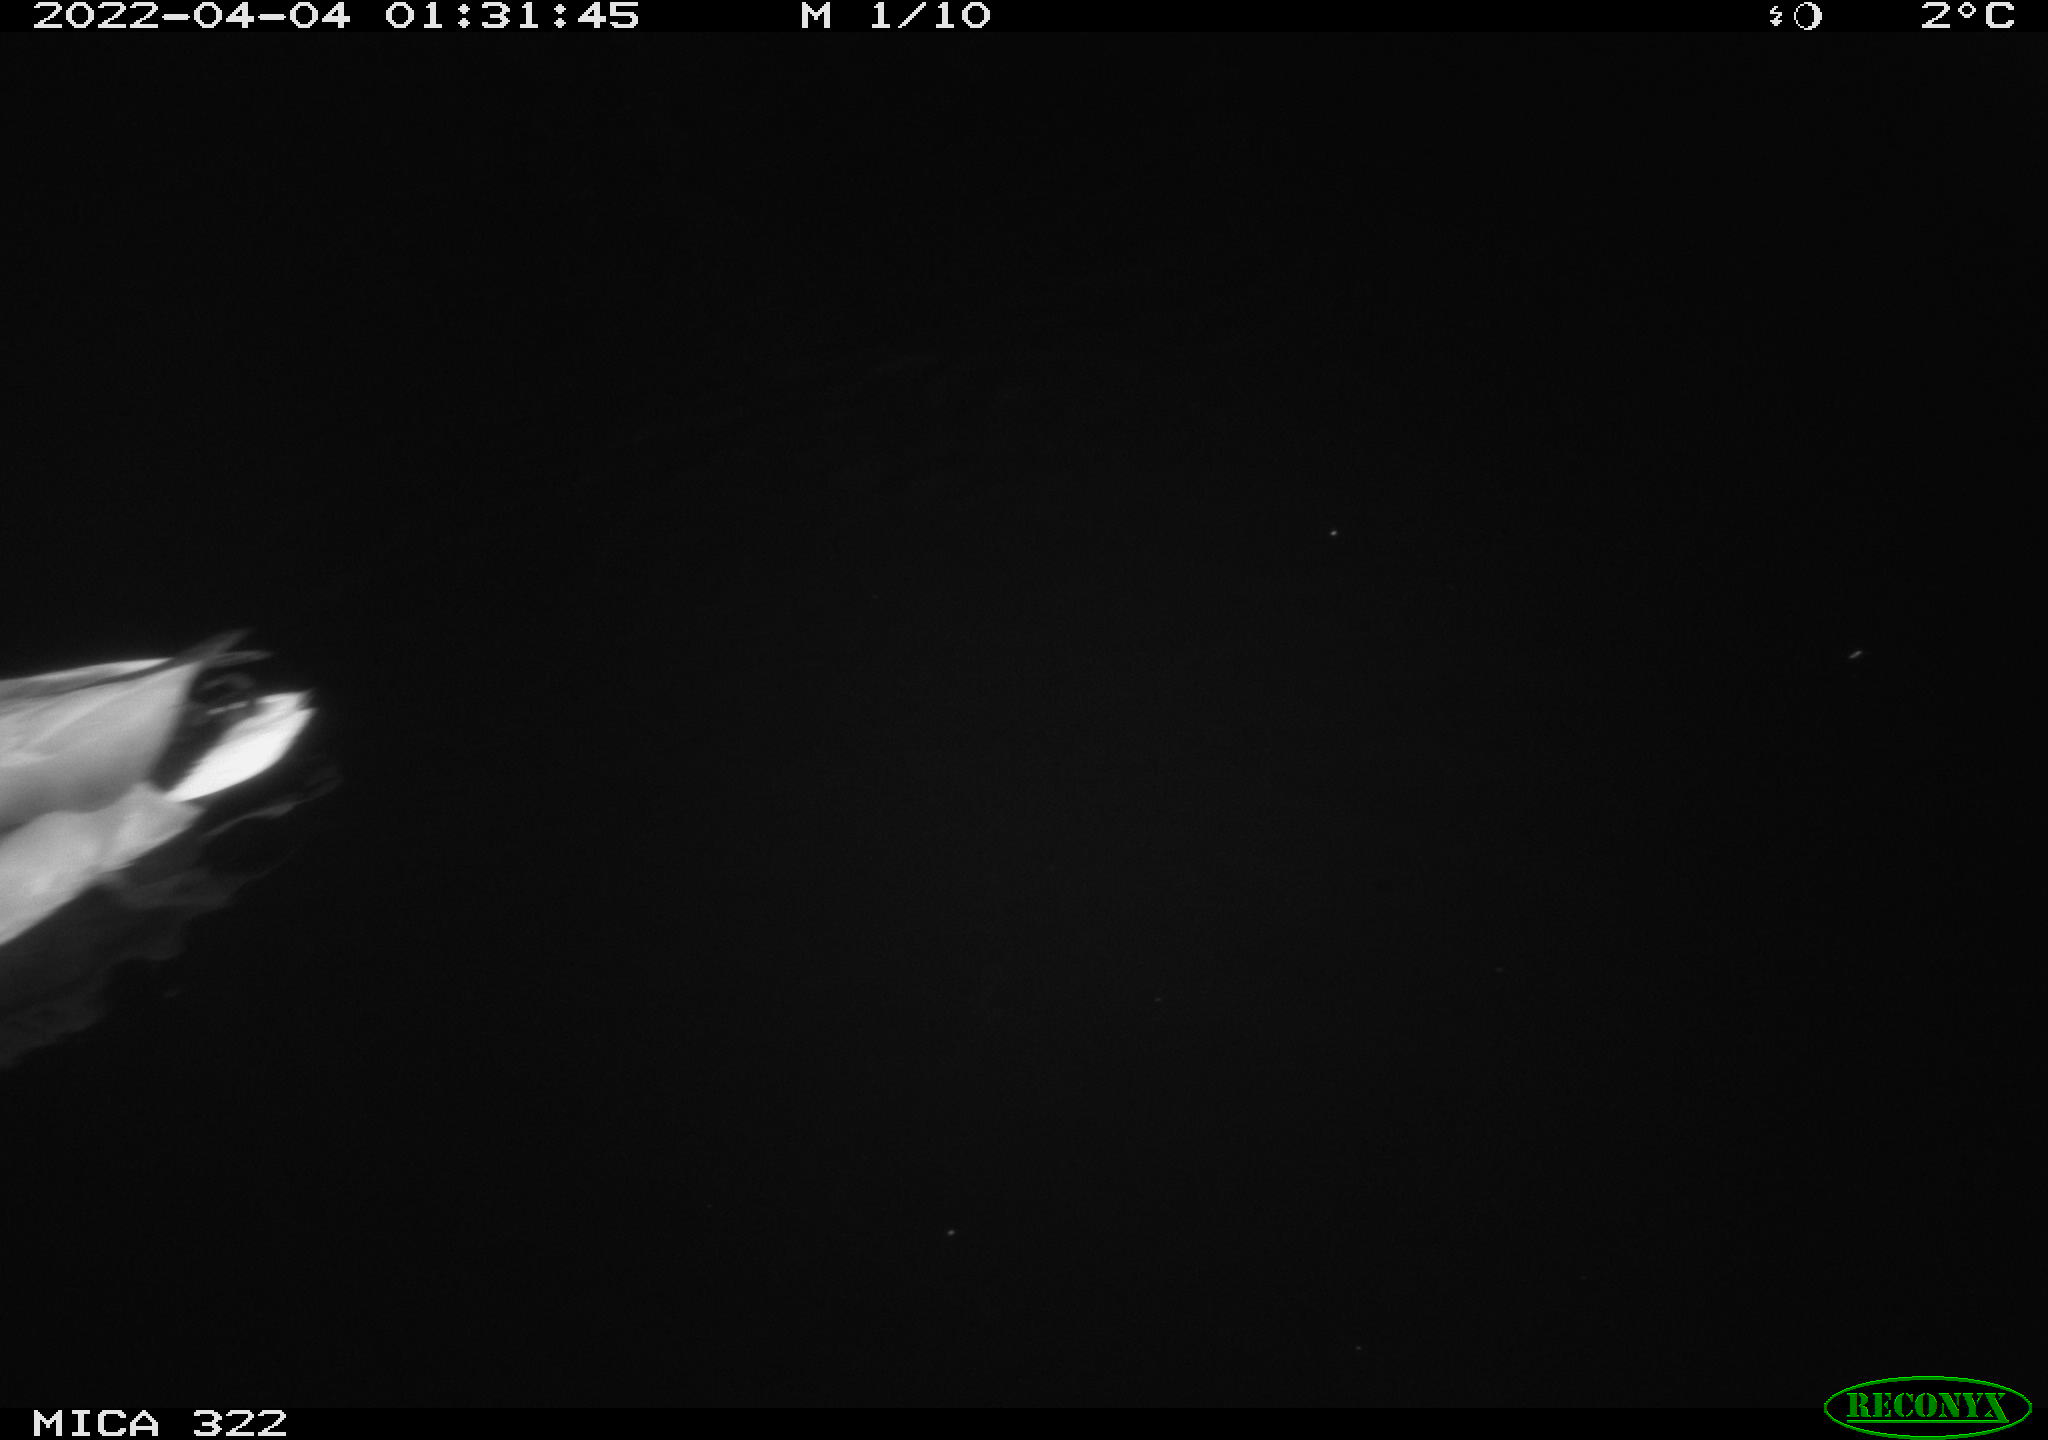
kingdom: Animalia
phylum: Chordata
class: Aves
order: Anseriformes
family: Anatidae
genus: Anas
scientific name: Anas platyrhynchos
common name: Mallard
